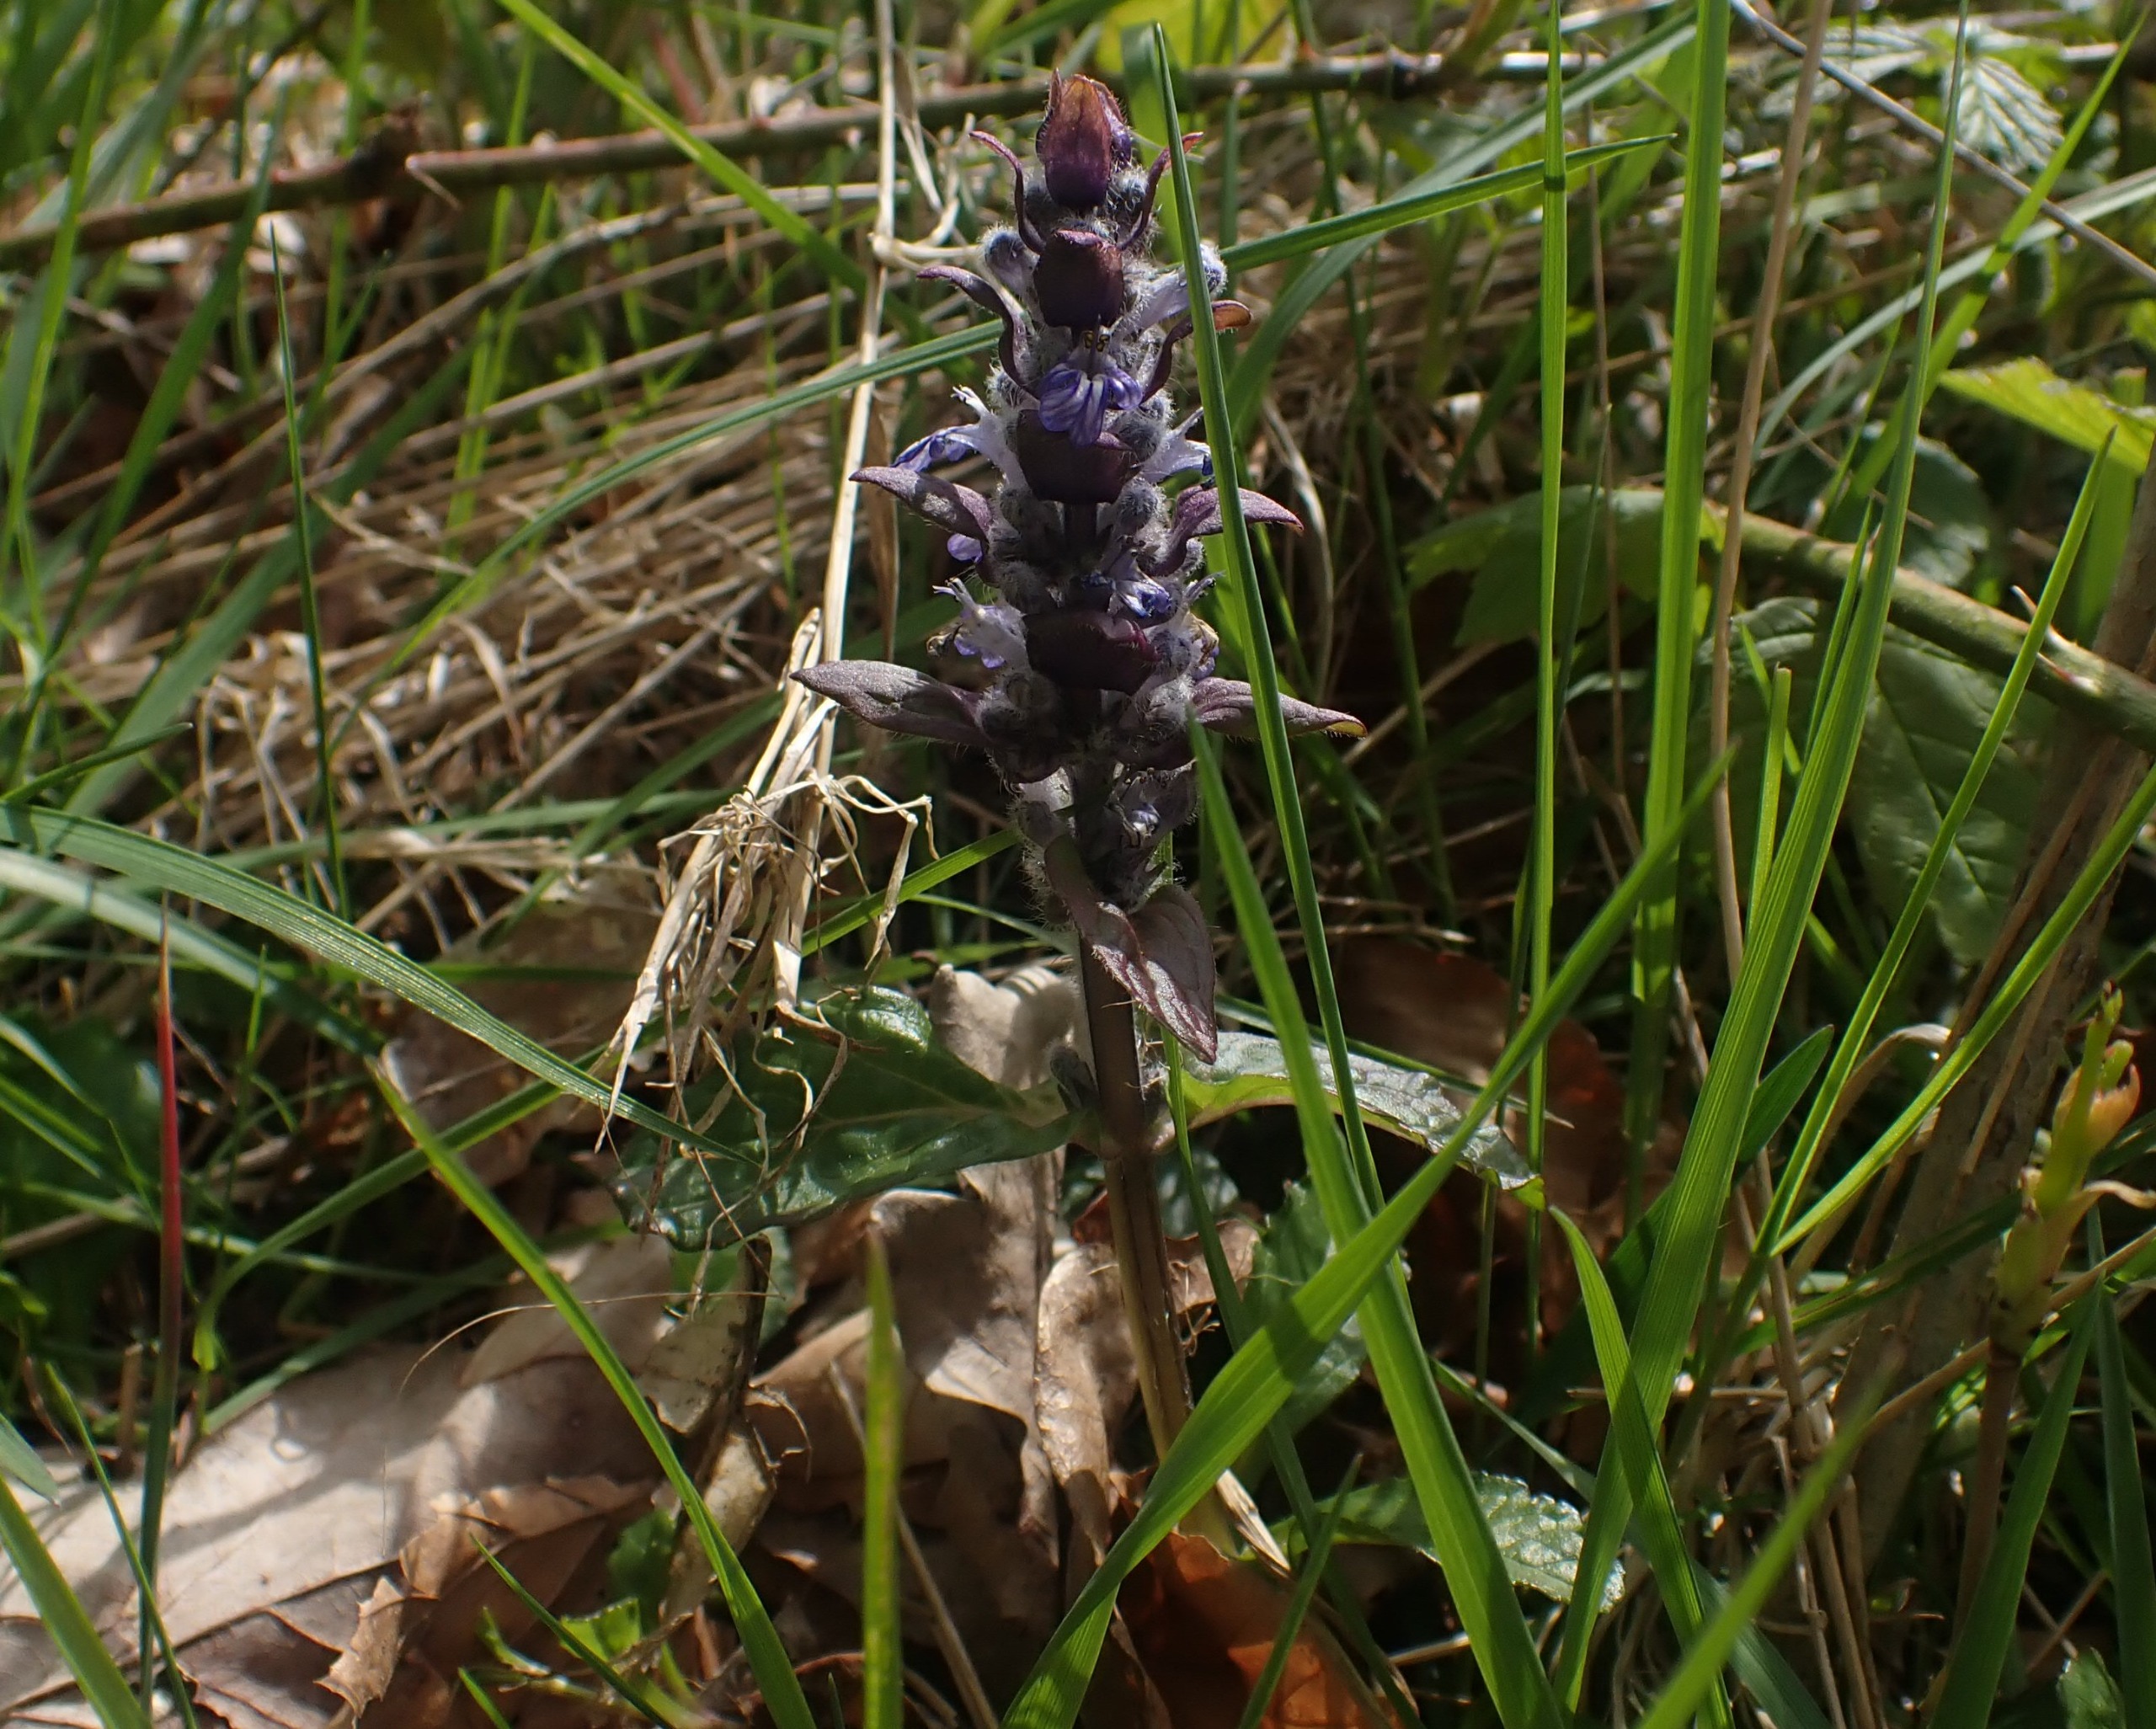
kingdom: Plantae
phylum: Tracheophyta
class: Magnoliopsida
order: Lamiales
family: Lamiaceae
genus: Ajuga
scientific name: Ajuga reptans
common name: Krybende læbeløs
